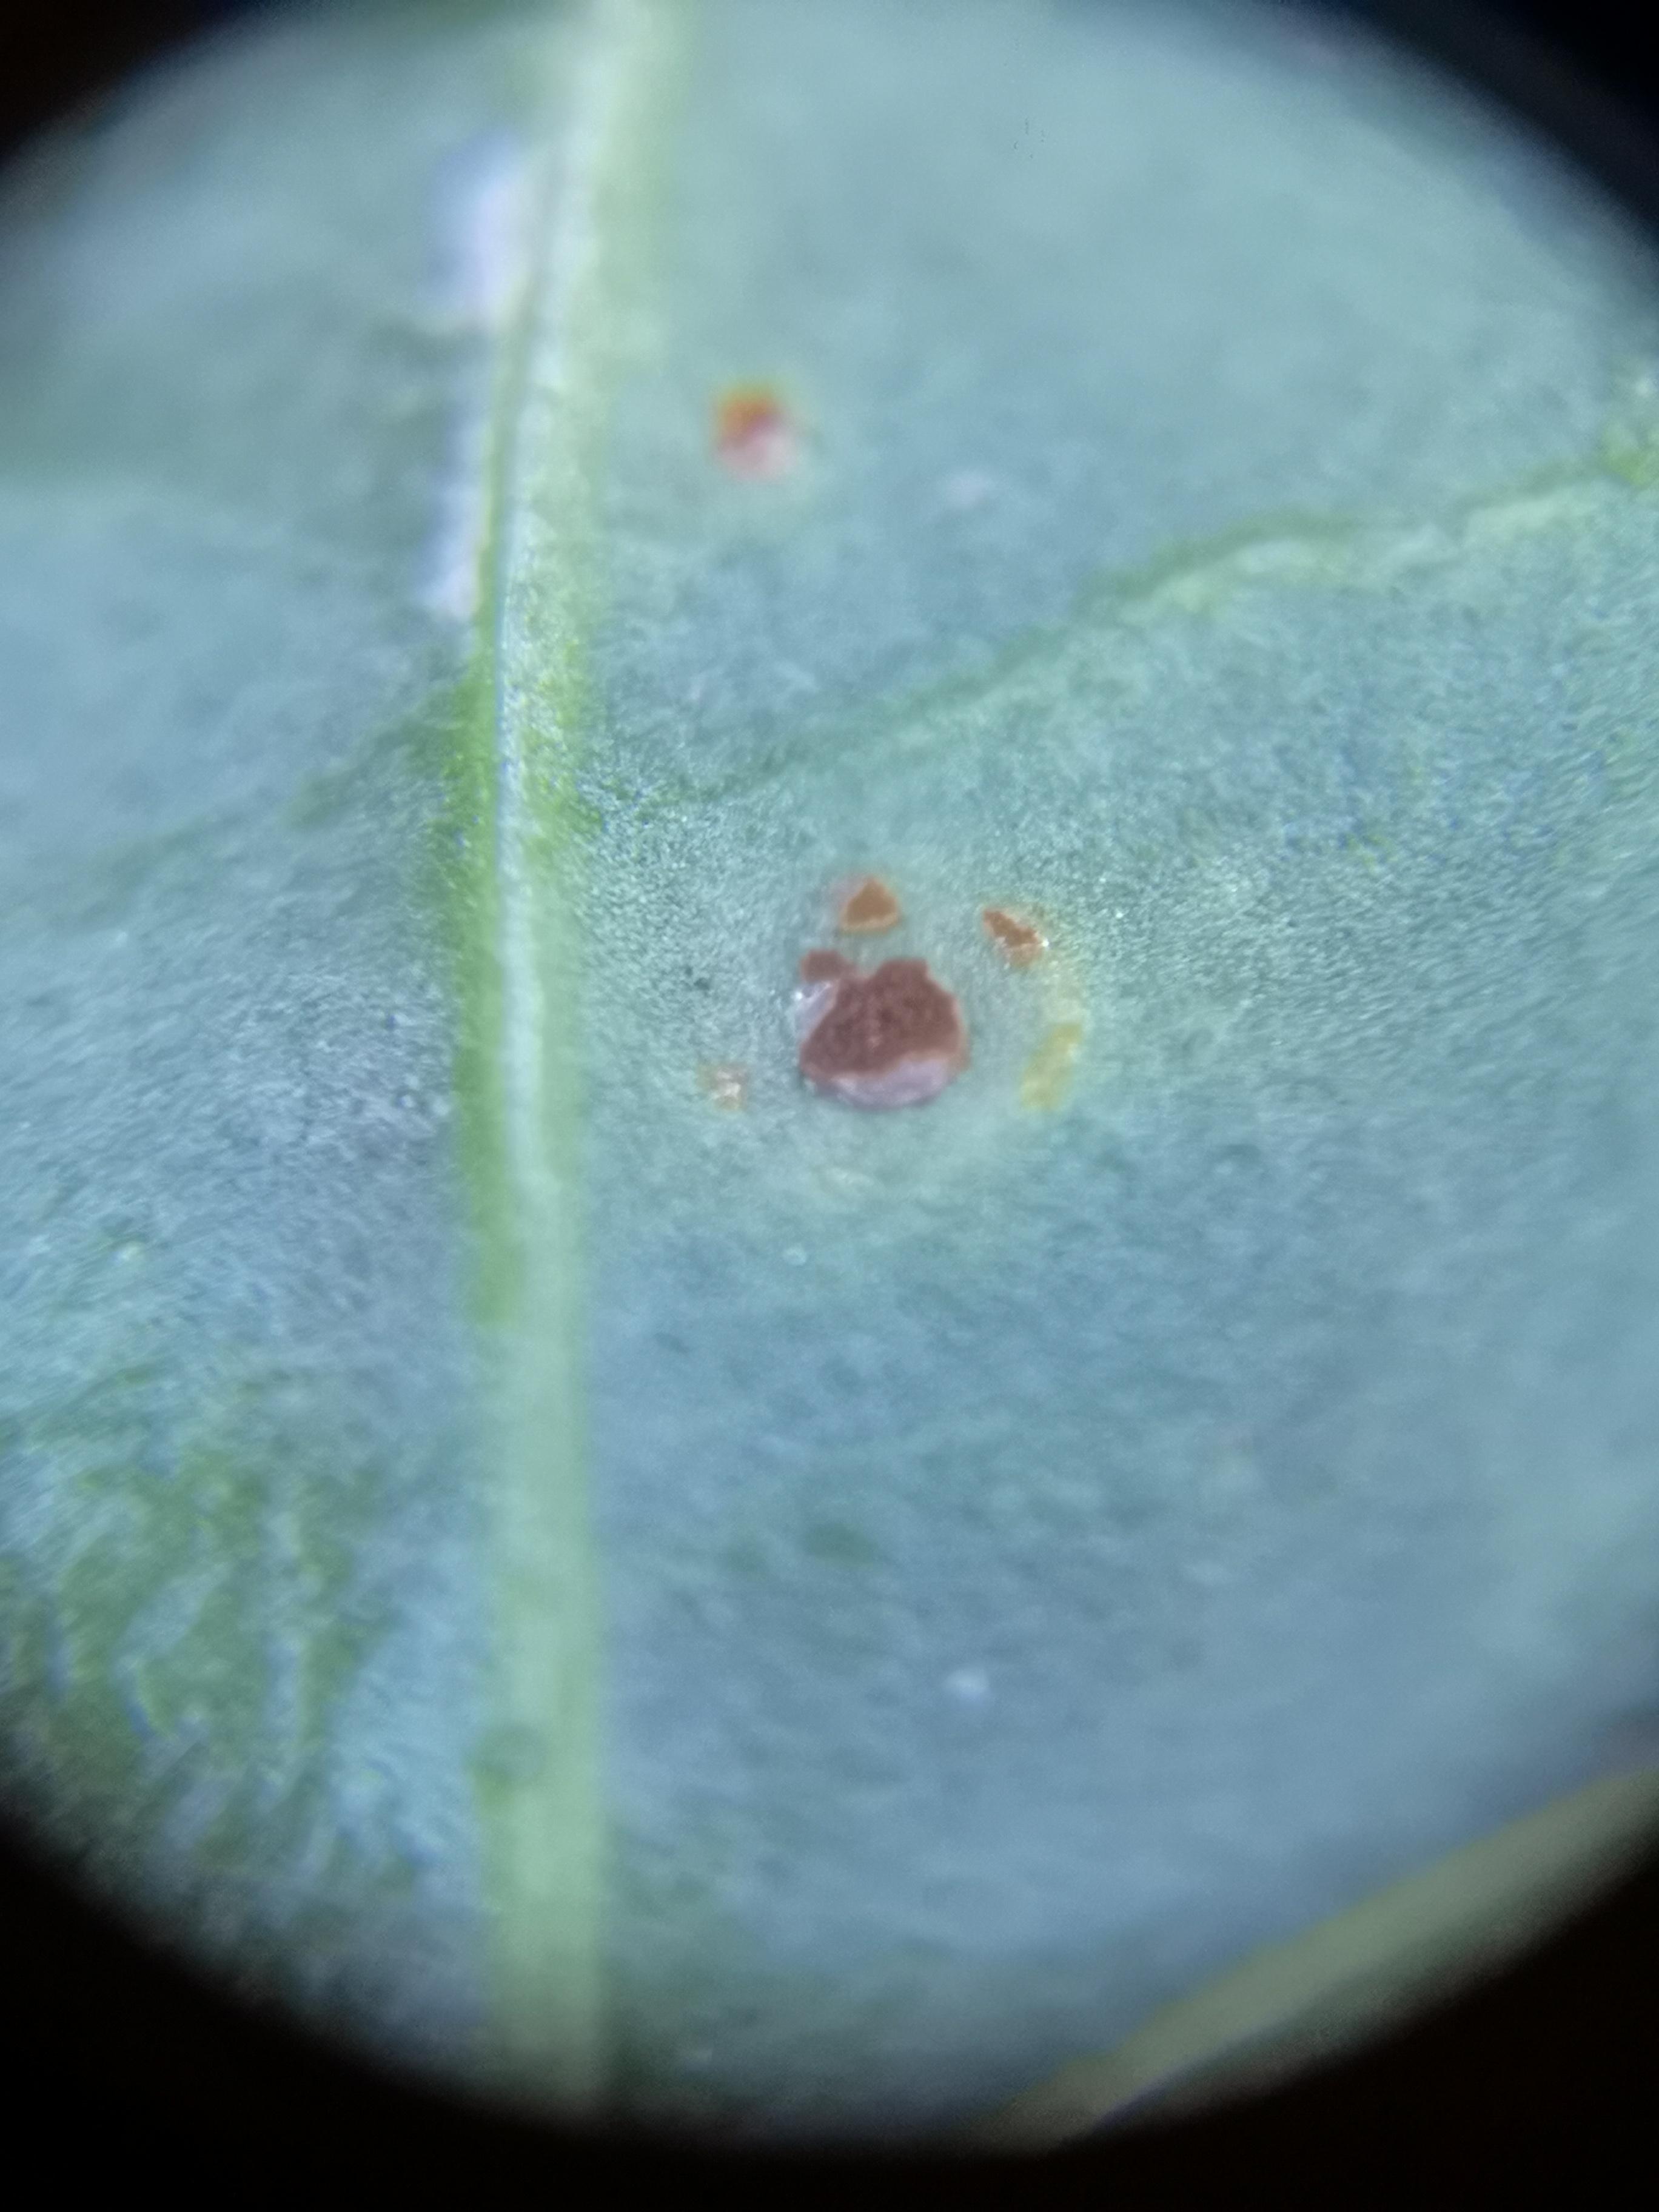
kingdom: Fungi
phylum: Basidiomycota
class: Pucciniomycetes
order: Pucciniales
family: Pucciniaceae
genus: Uromyces
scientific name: Uromyces betae
